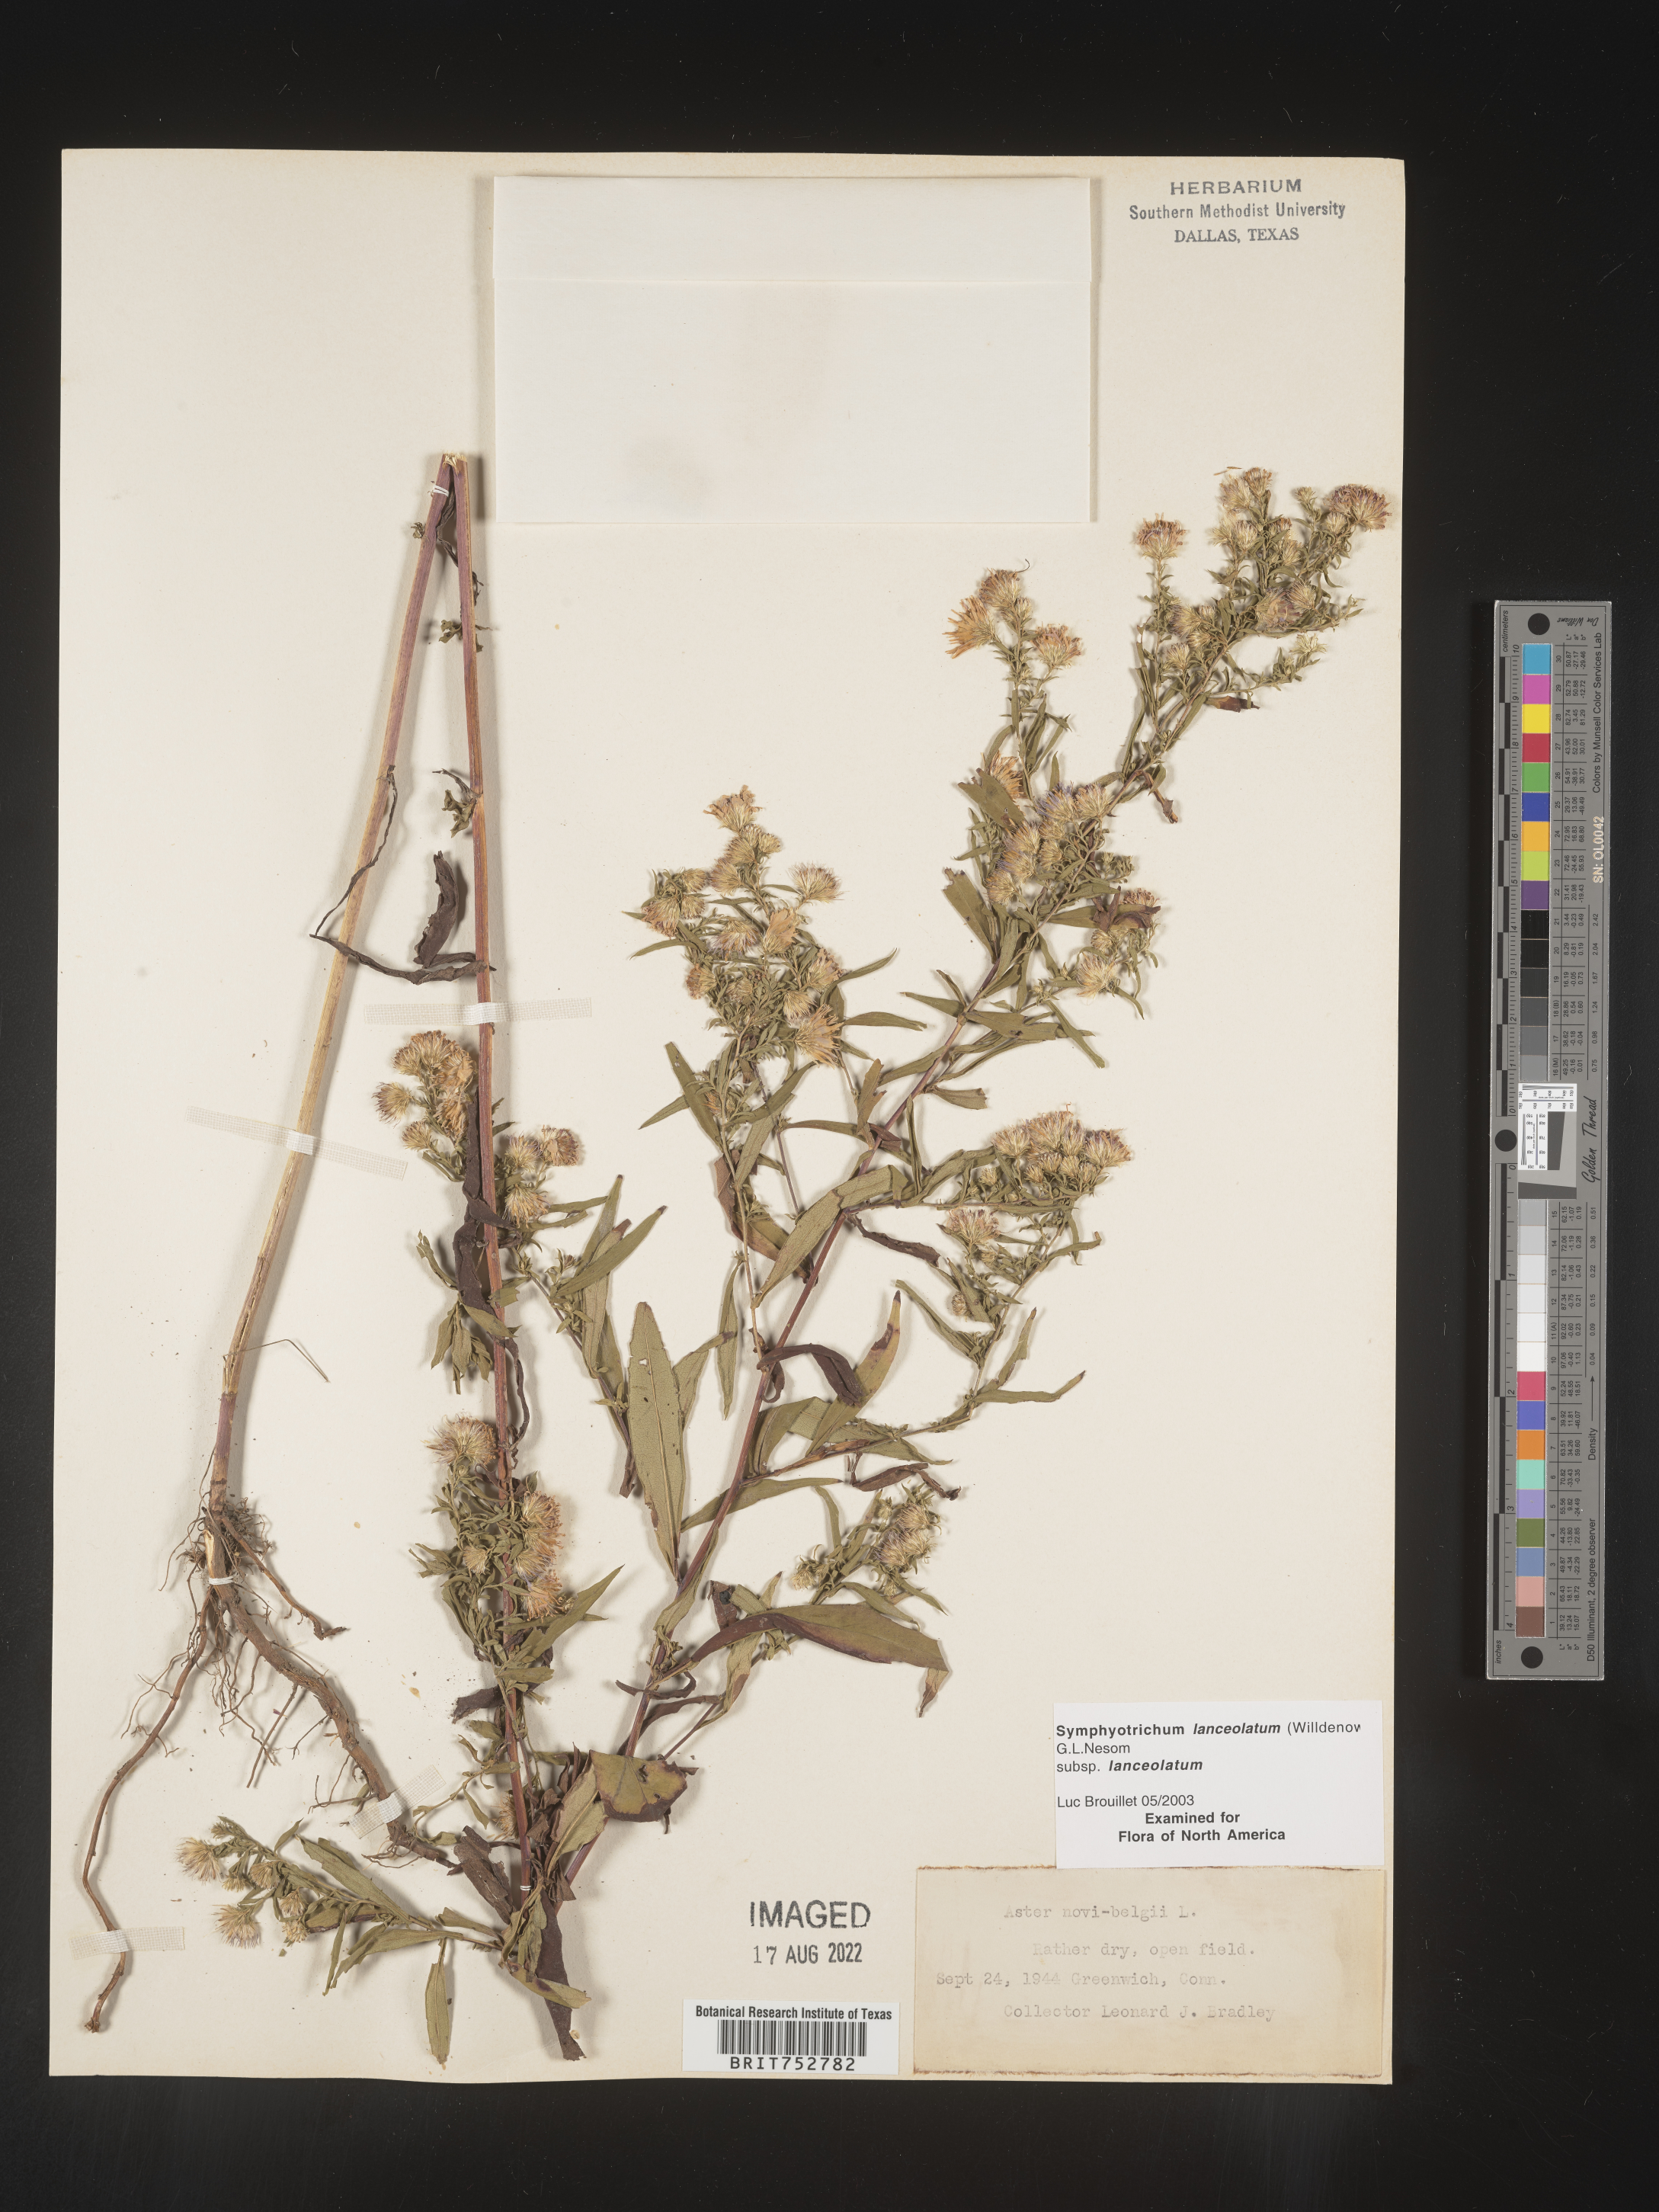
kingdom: Plantae
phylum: Tracheophyta
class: Magnoliopsida
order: Asterales
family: Asteraceae
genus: Symphyotrichum
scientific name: Symphyotrichum lanceolatum
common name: Panicled aster
